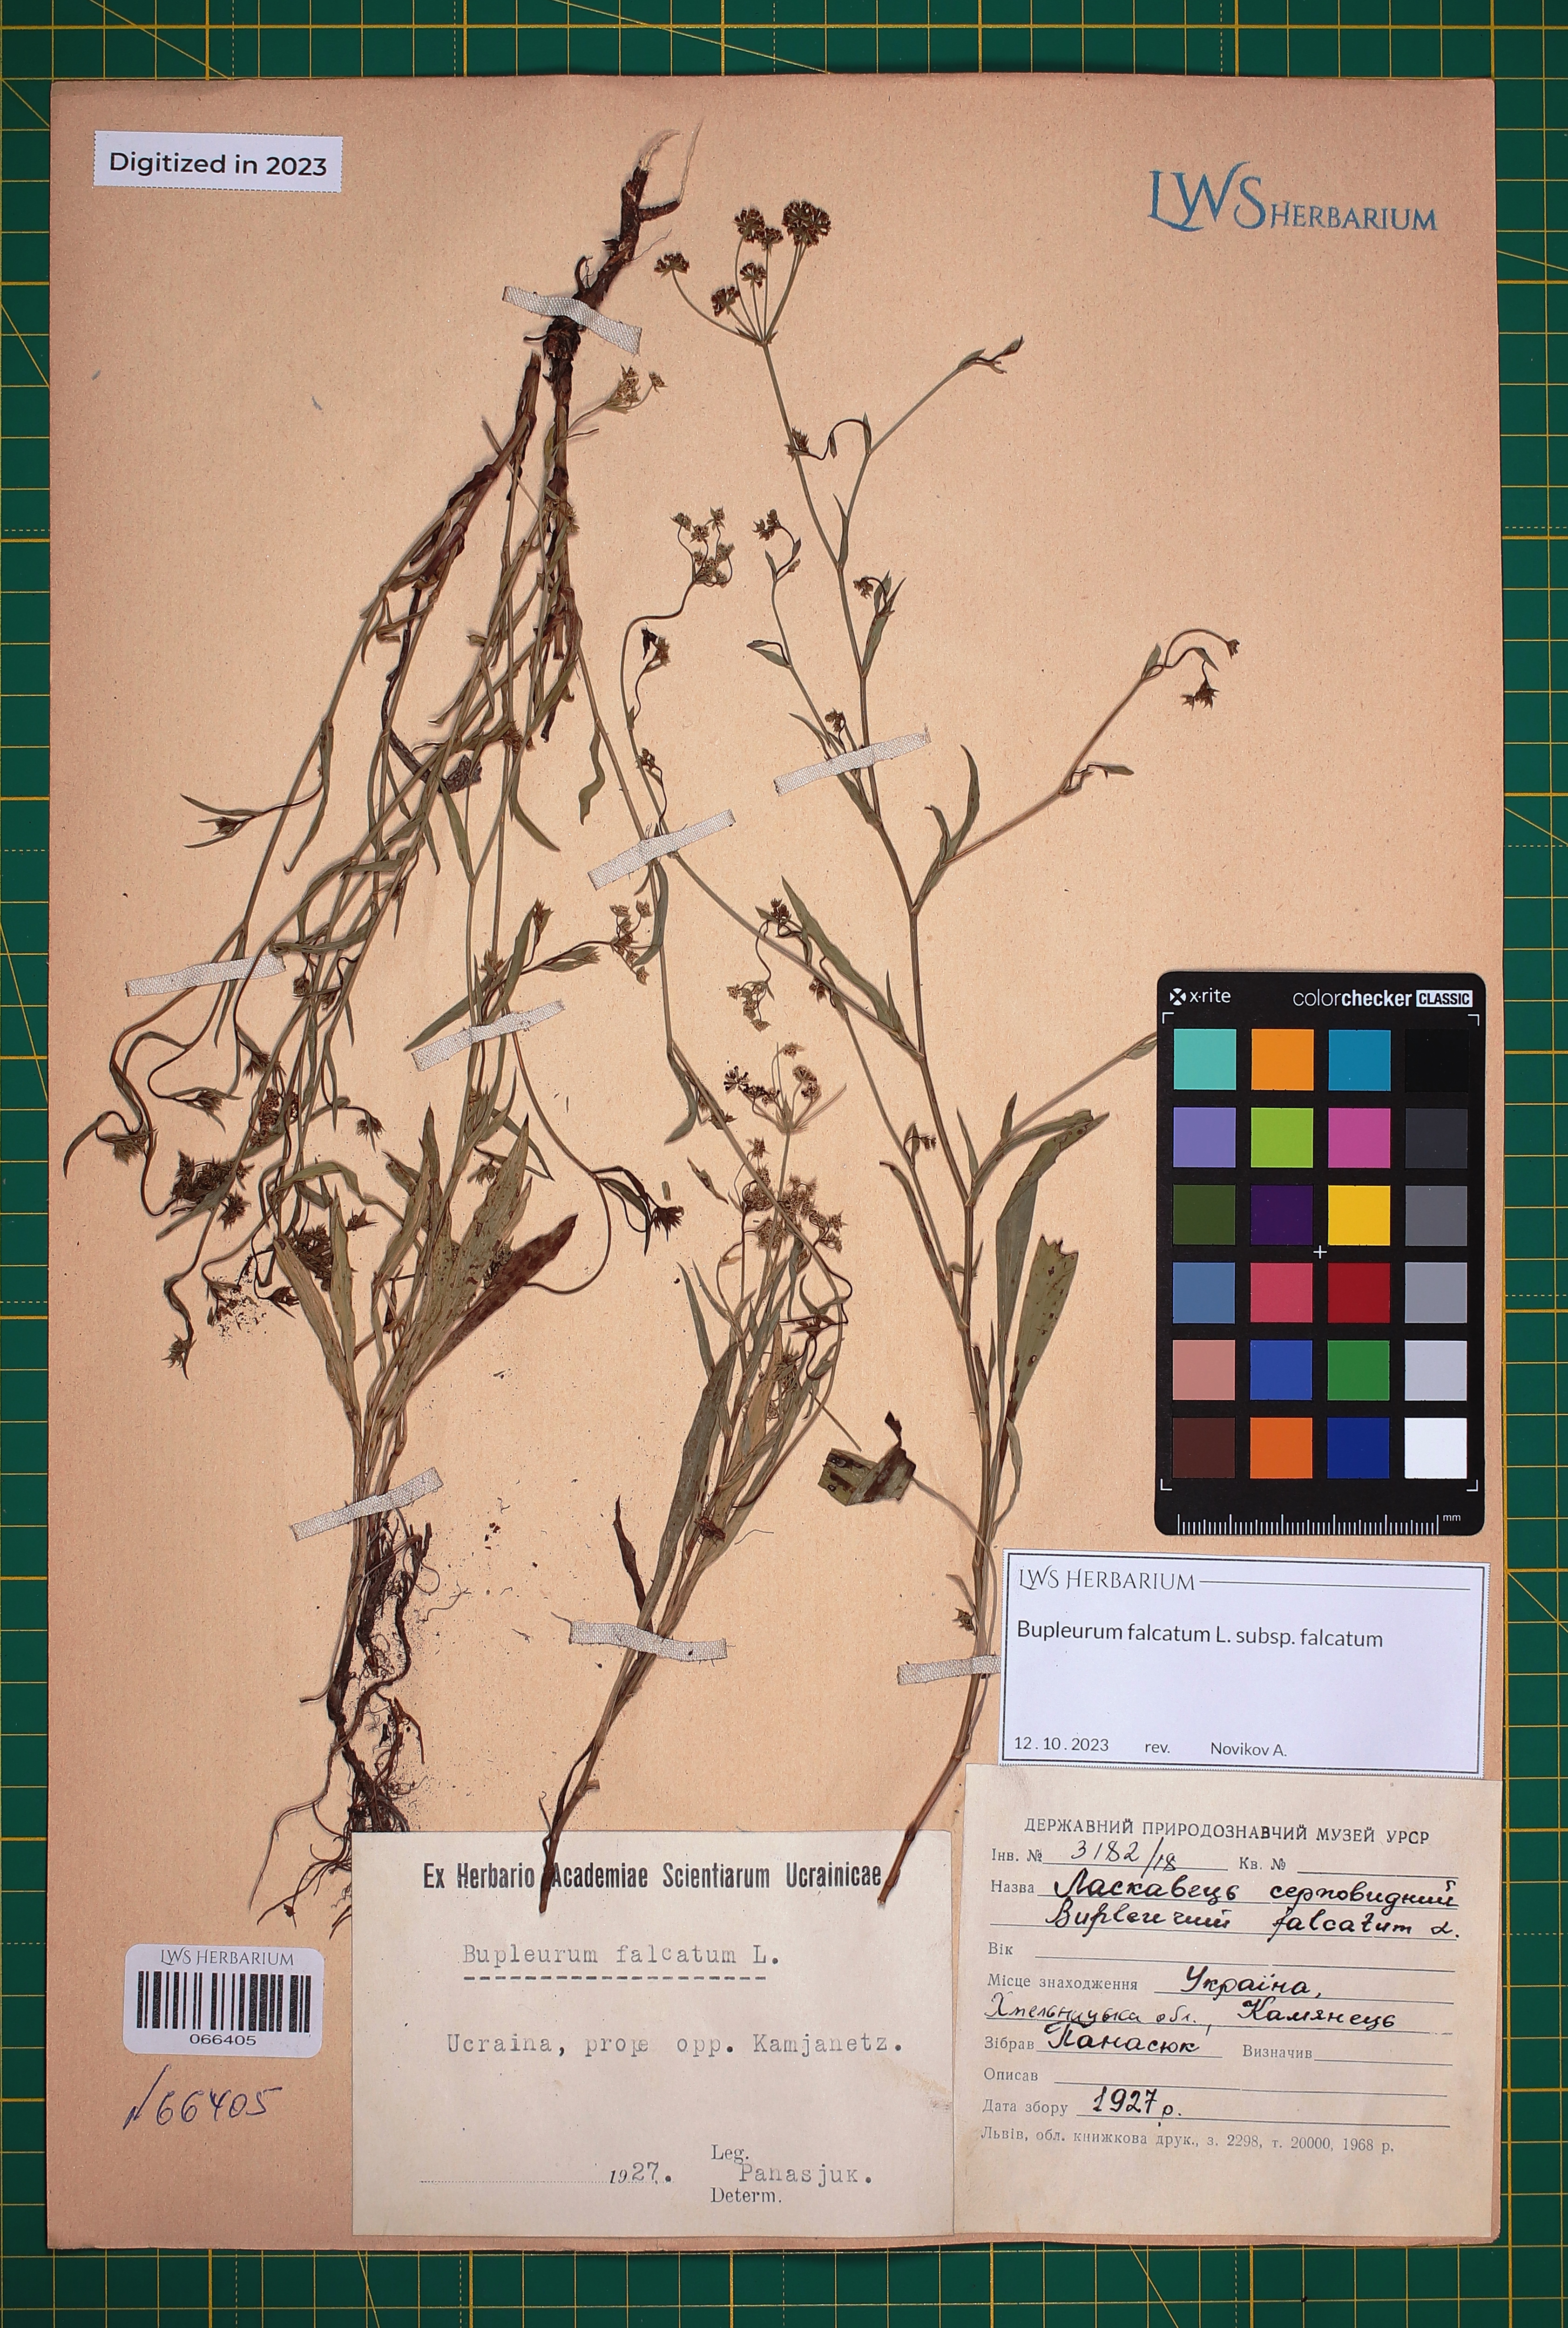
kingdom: Plantae
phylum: Tracheophyta
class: Magnoliopsida
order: Apiales
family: Apiaceae
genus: Bupleurum
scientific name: Bupleurum falcatum
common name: Sickle-leaved hare's-ear
